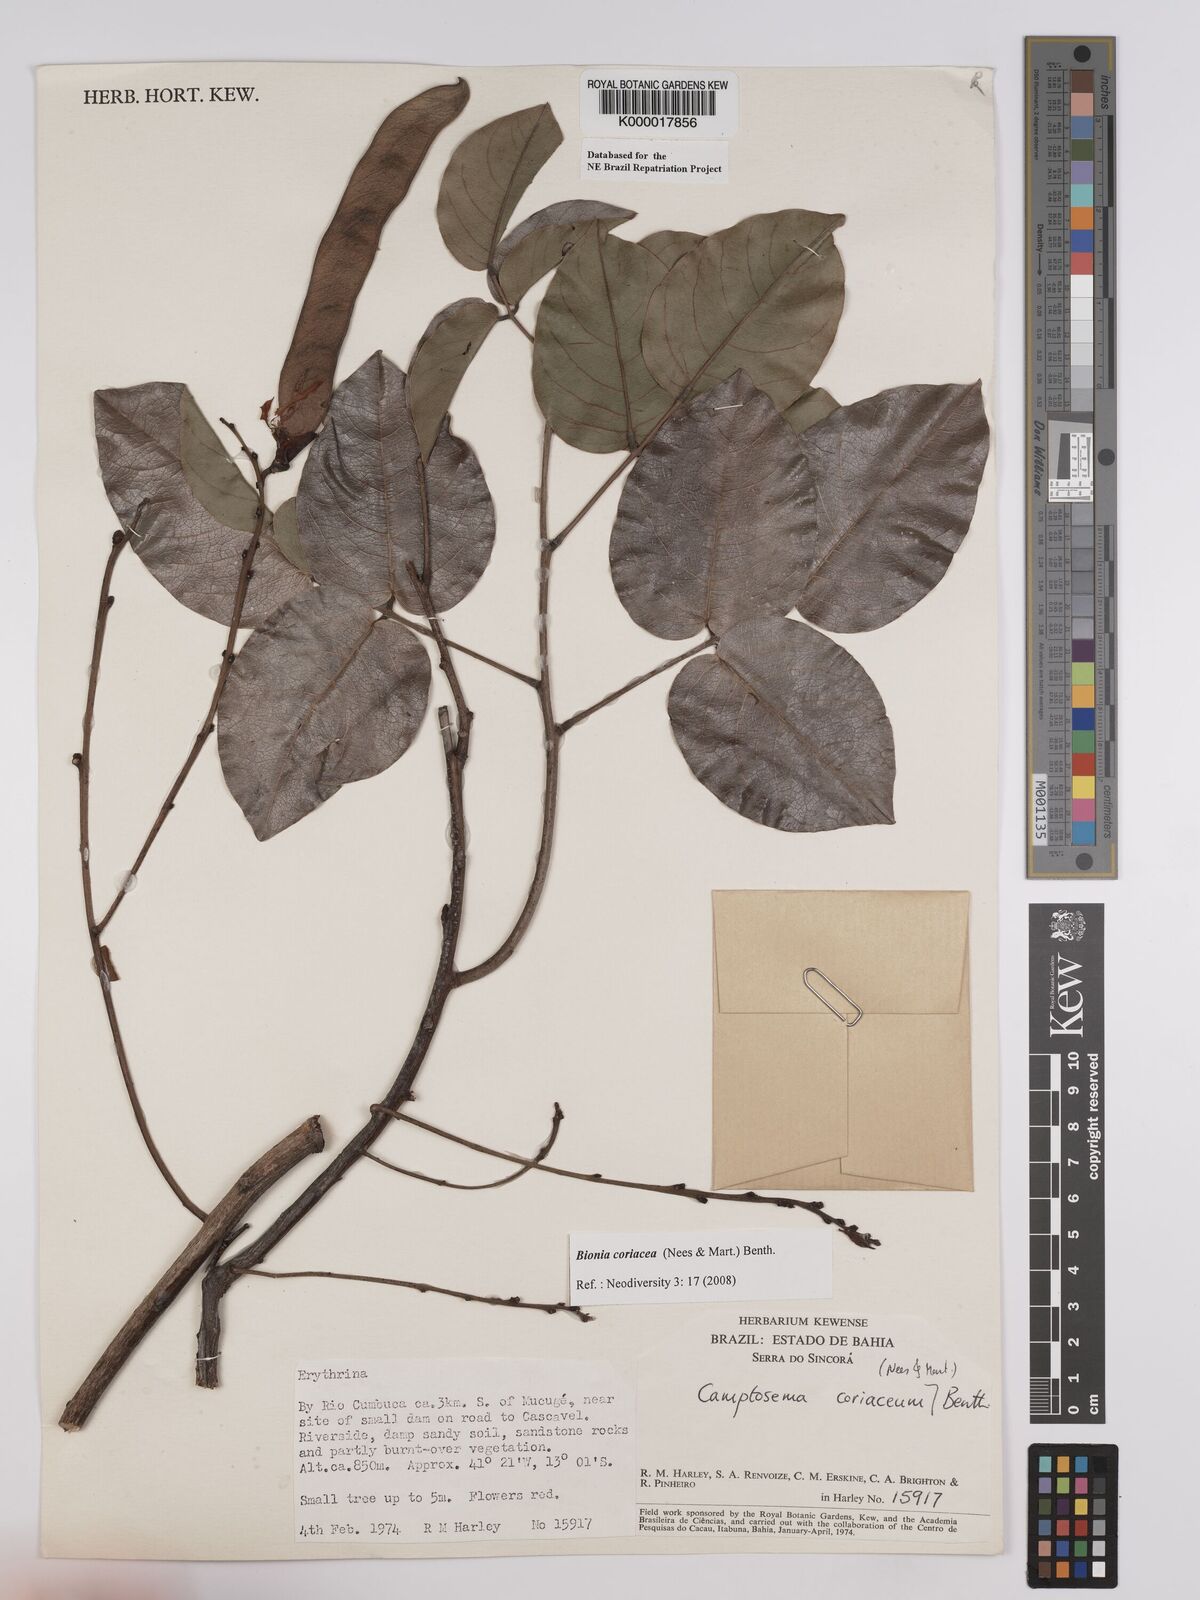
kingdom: Plantae
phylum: Tracheophyta
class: Magnoliopsida
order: Fabales
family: Fabaceae
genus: Camptosema
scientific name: Camptosema coriaceum
